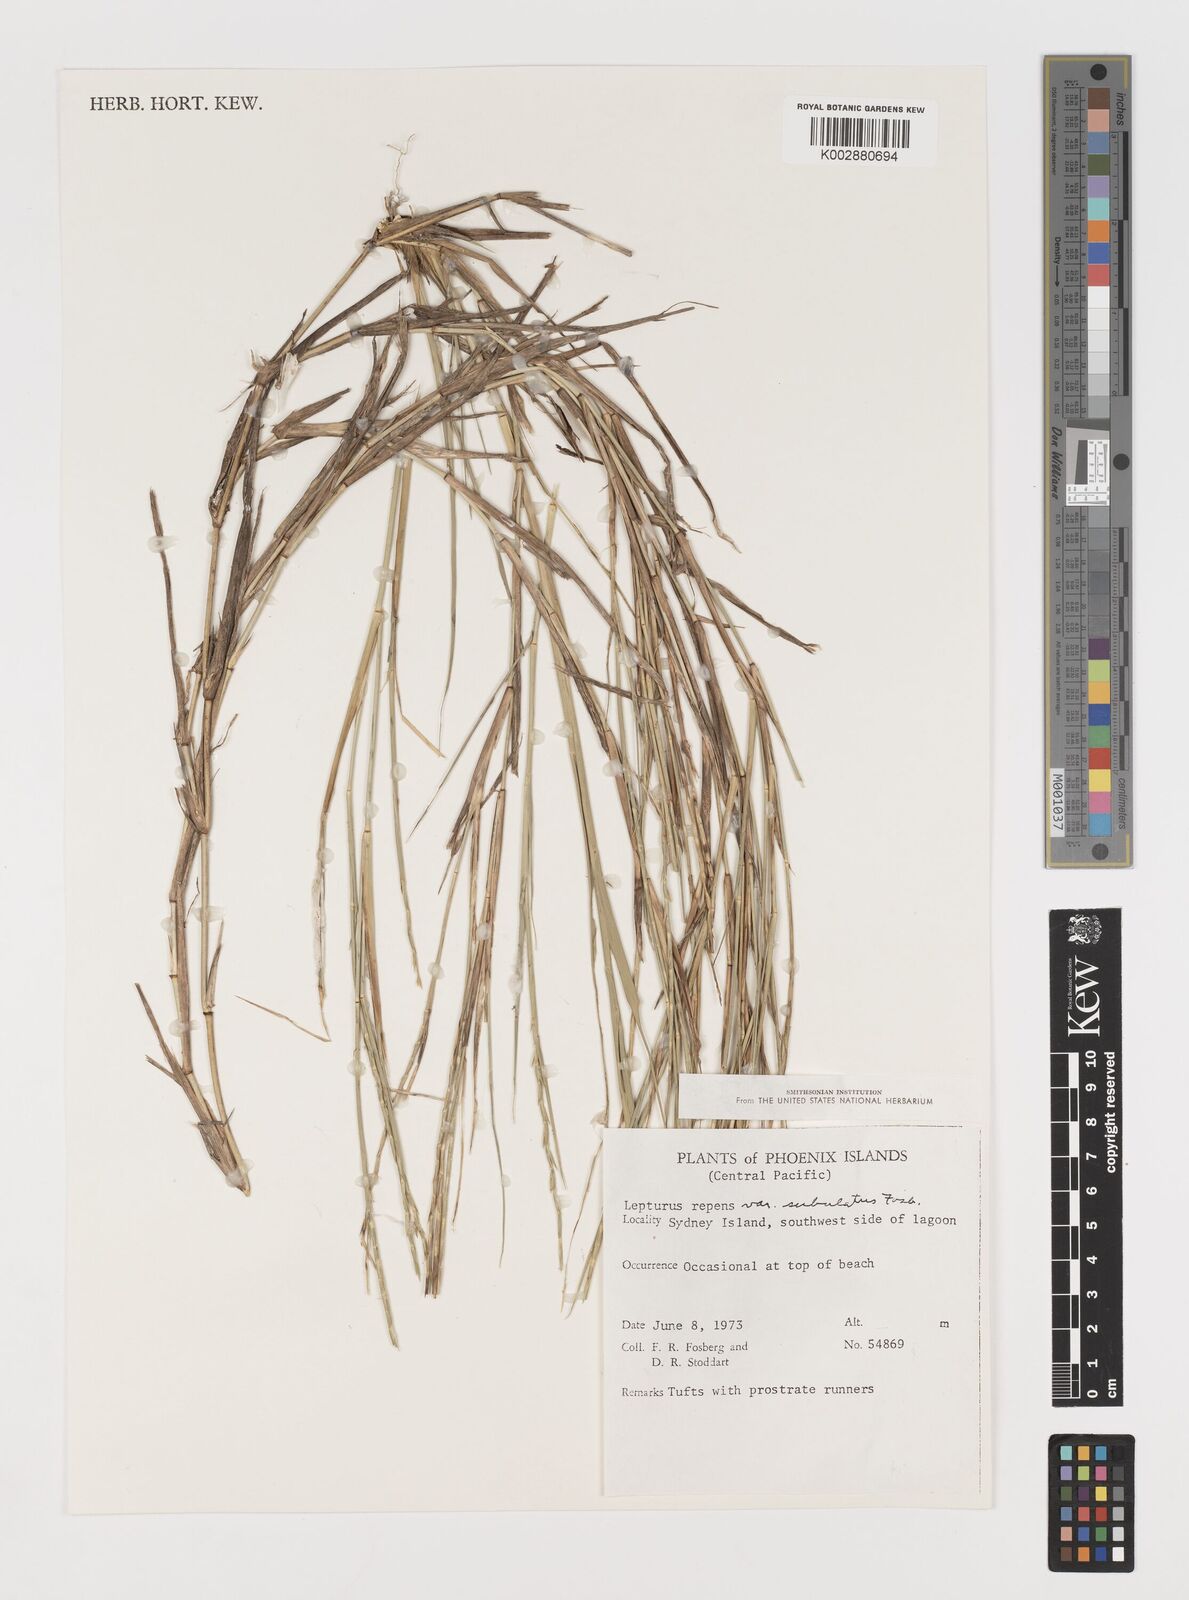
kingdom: Plantae
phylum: Tracheophyta
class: Liliopsida
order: Poales
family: Poaceae
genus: Lepturus
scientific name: Lepturus repens
